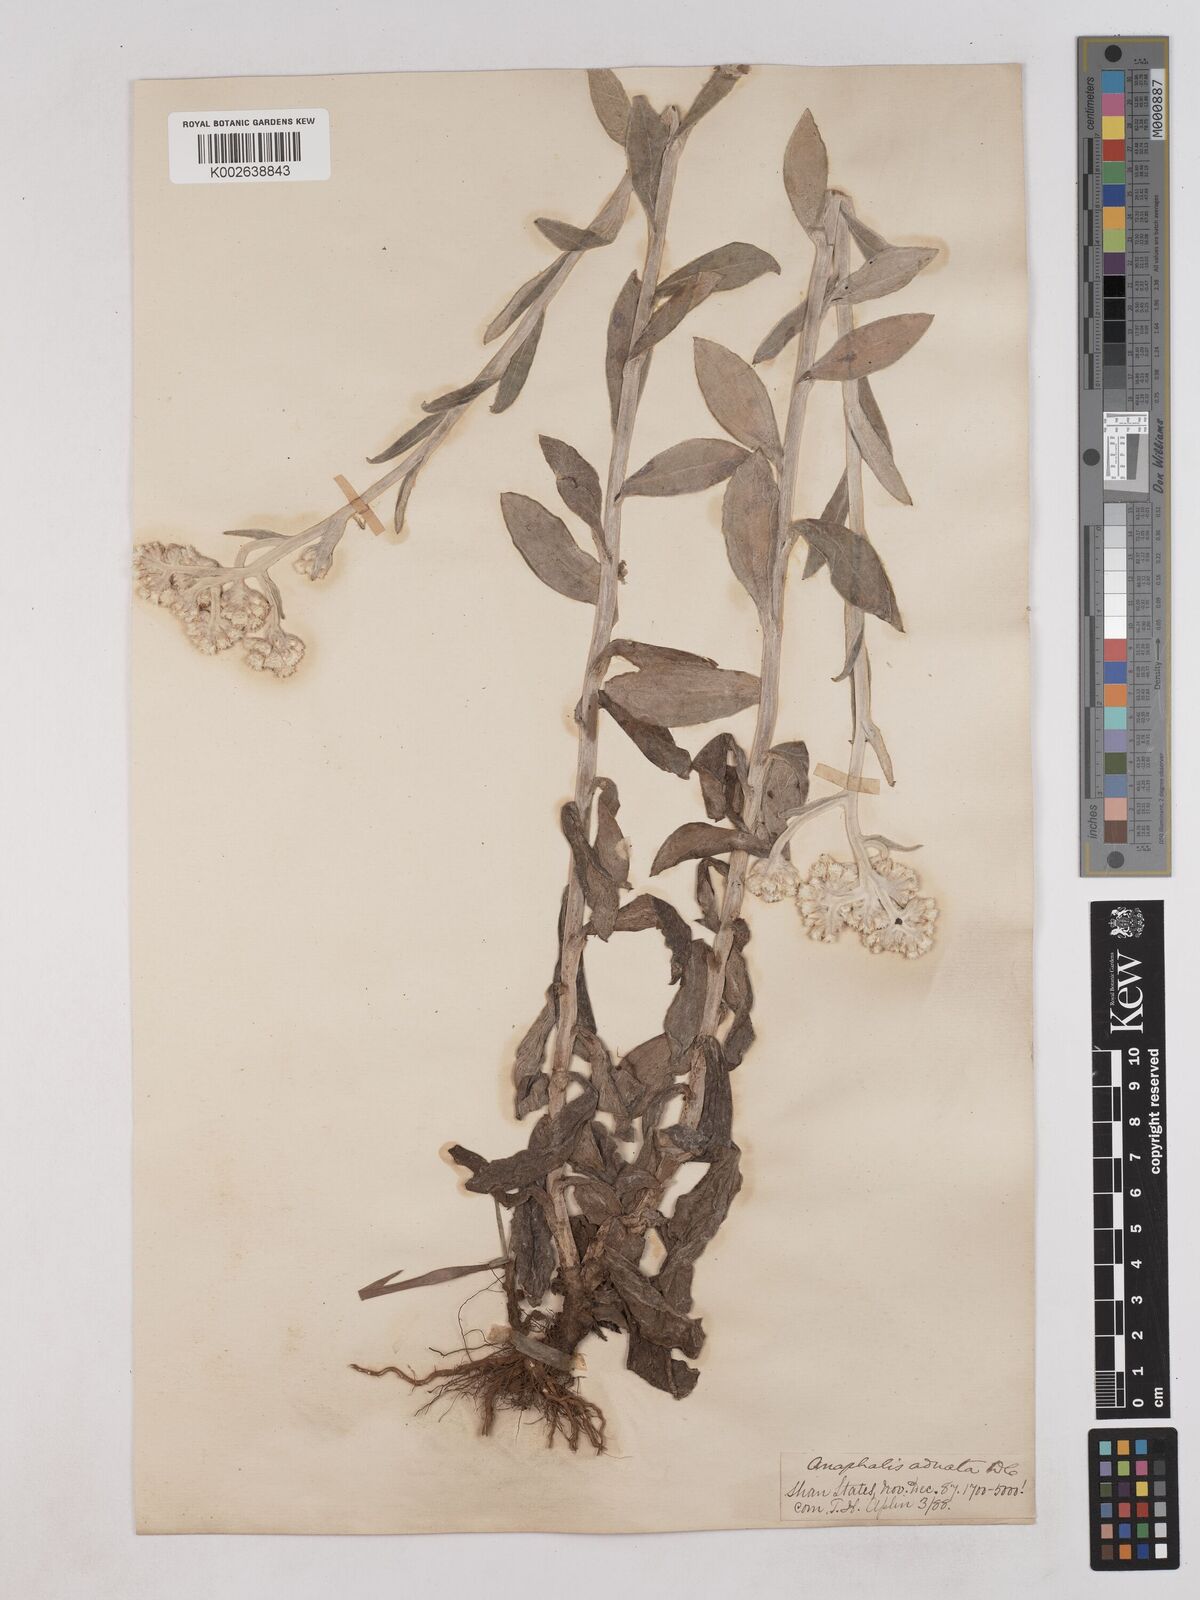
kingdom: Plantae
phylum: Tracheophyta
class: Magnoliopsida
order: Asterales
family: Asteraceae
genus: Pseudognaphalium
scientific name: Pseudognaphalium adnatum
